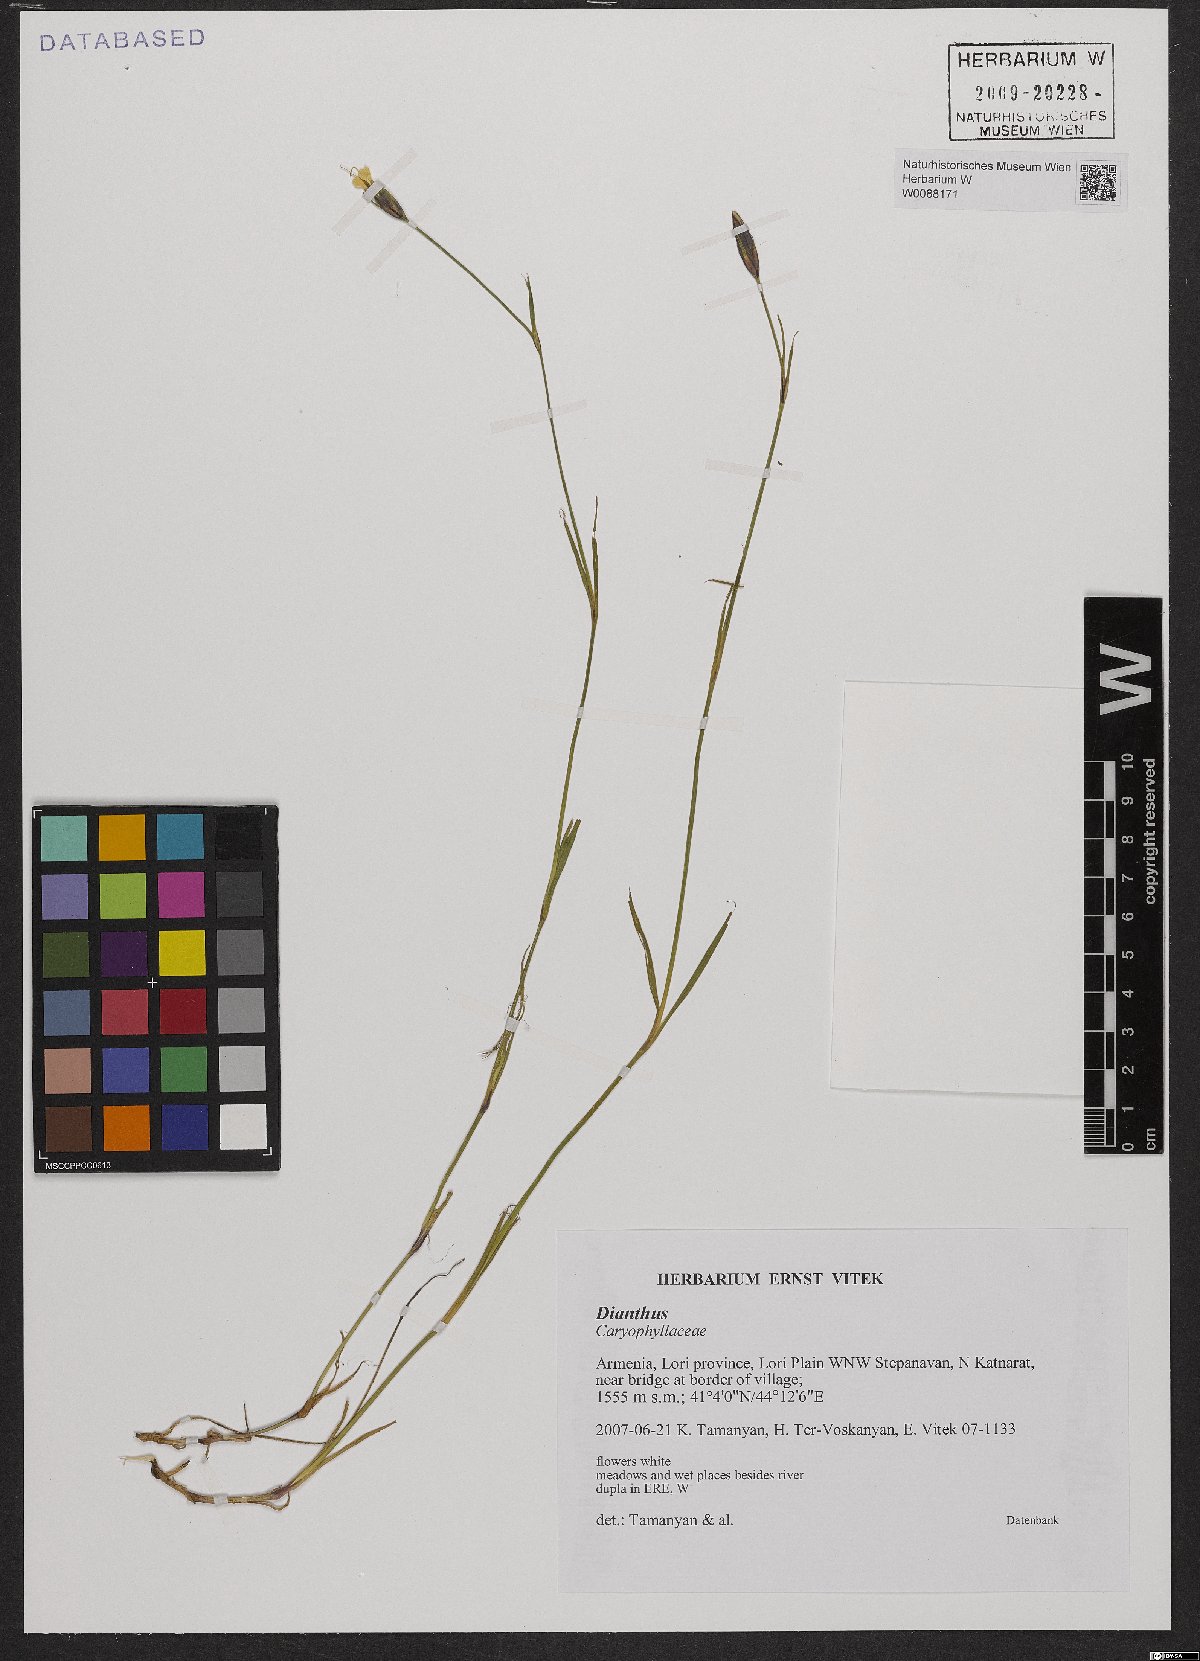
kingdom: Plantae
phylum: Tracheophyta
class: Magnoliopsida
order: Caryophyllales
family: Caryophyllaceae
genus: Dianthus
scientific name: Dianthus
